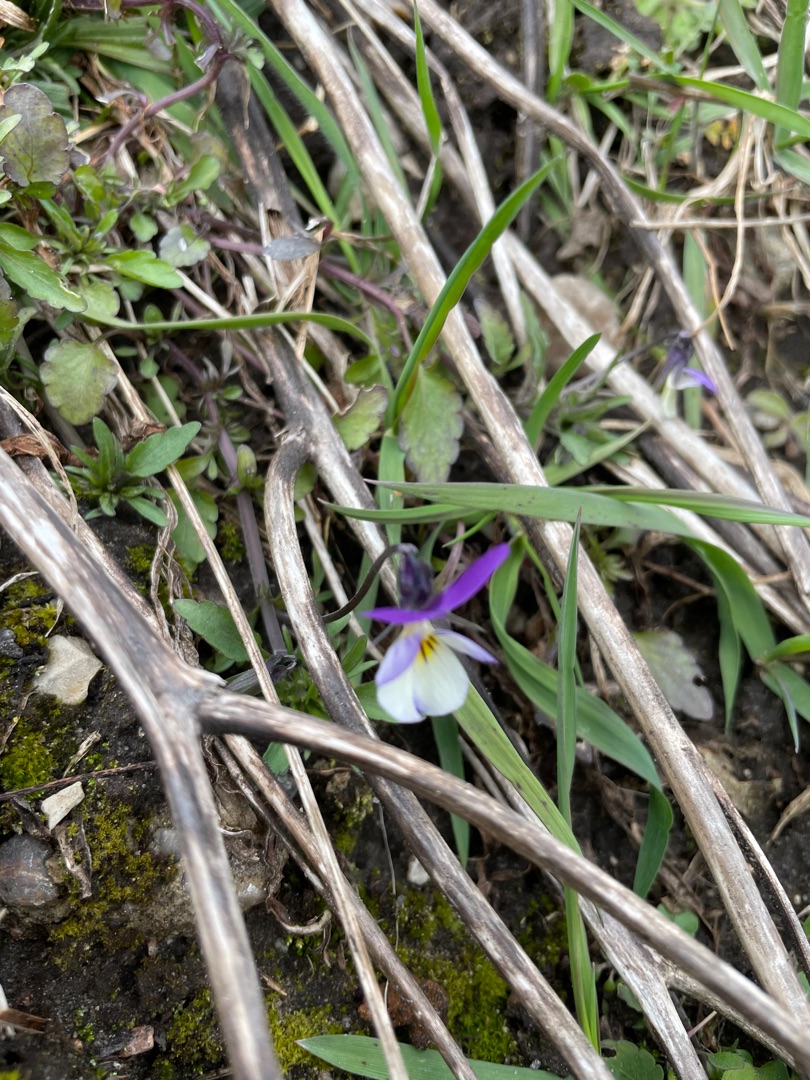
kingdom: Plantae
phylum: Tracheophyta
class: Magnoliopsida
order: Malpighiales
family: Violaceae
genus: Viola
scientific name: Viola tricolor
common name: Stedmoderblomst
